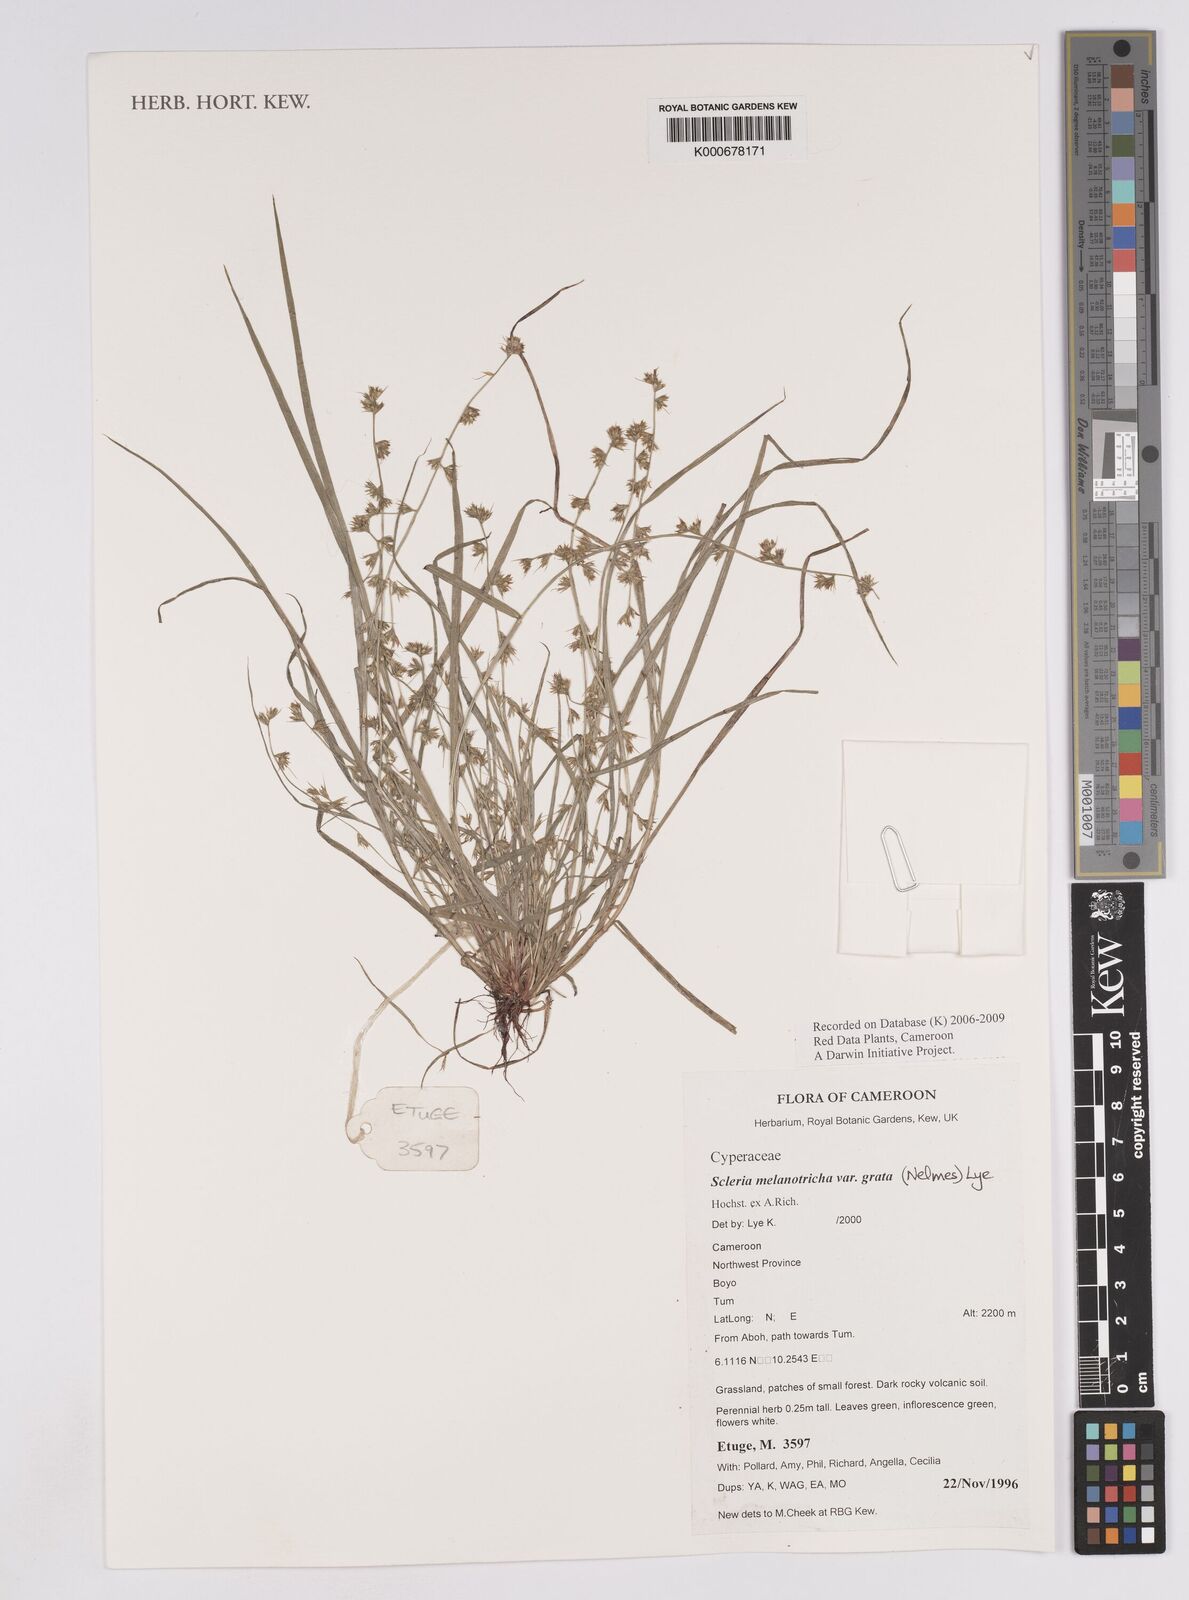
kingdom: Plantae
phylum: Tracheophyta
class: Liliopsida
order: Poales
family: Cyperaceae
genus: Scleria
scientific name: Scleria melanotricha
